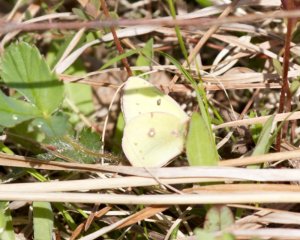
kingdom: Animalia
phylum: Arthropoda
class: Insecta
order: Lepidoptera
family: Pieridae
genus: Colias
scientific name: Colias philodice
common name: Clouded Sulphur
